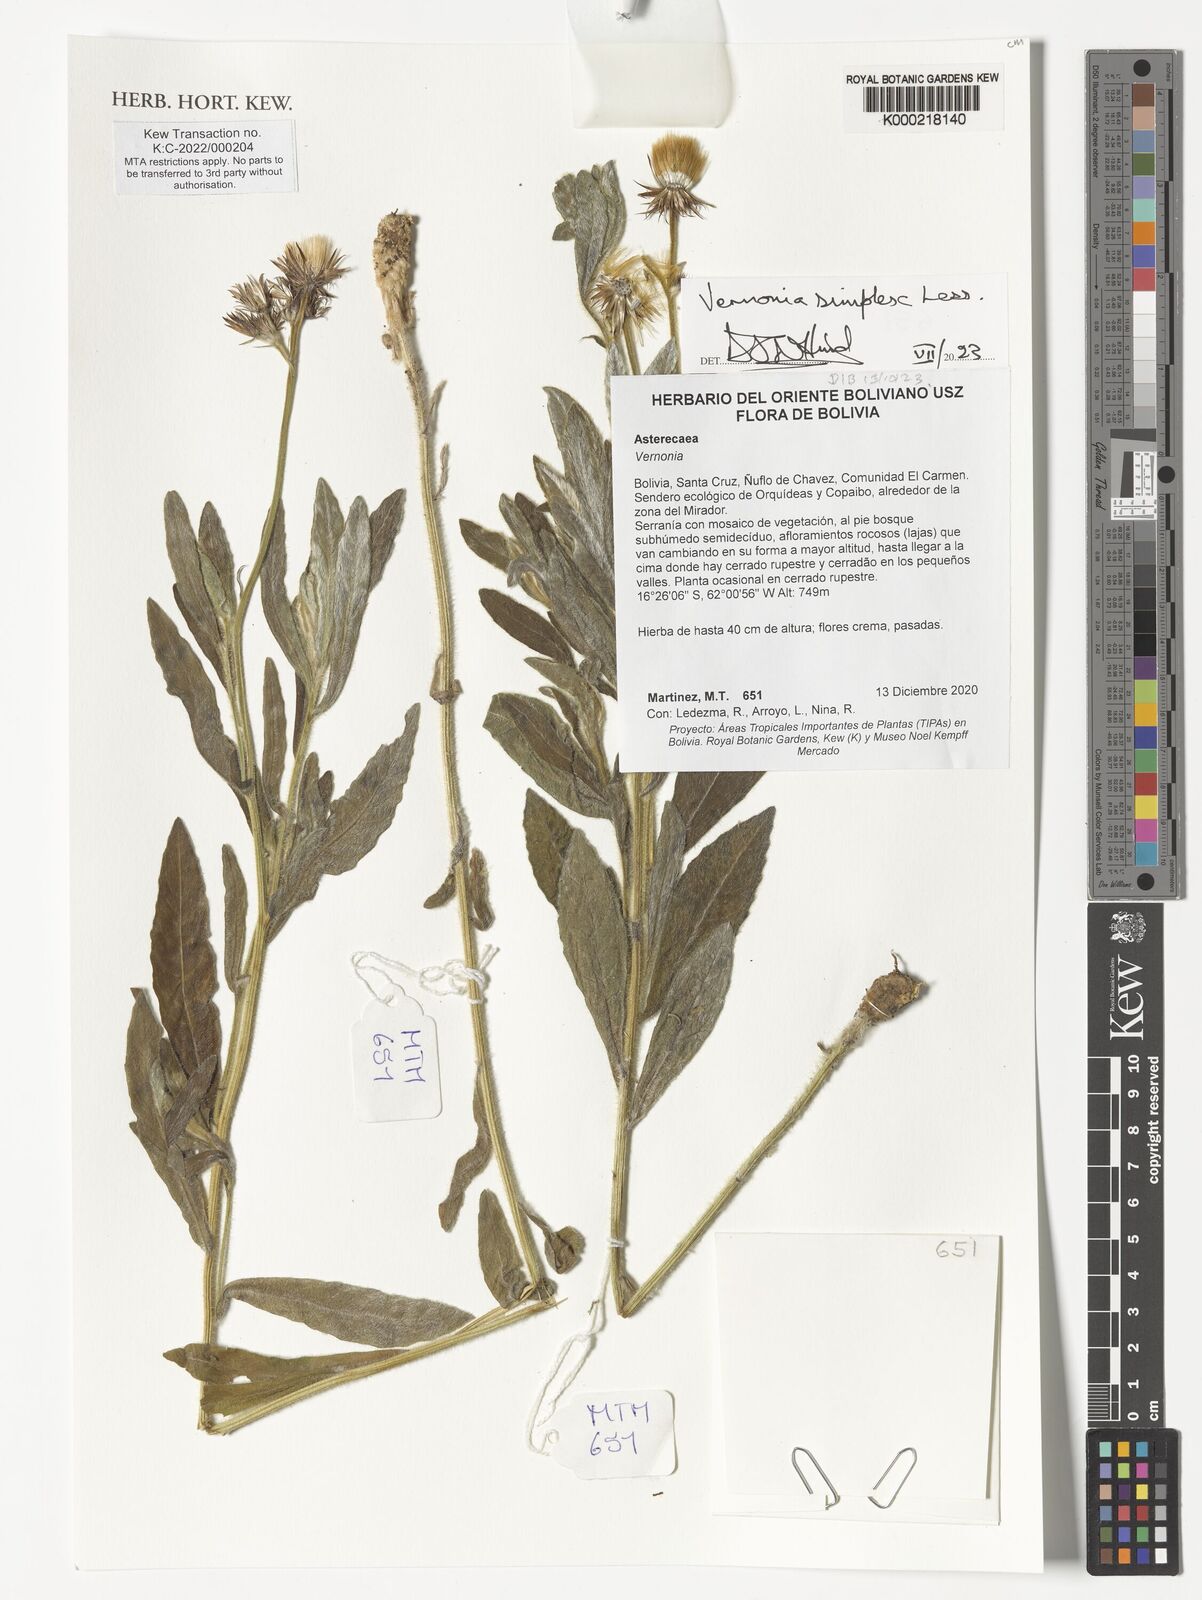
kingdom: Plantae
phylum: Tracheophyta
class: Magnoliopsida
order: Asterales
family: Asteraceae
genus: Chrysolaena
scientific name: Chrysolaena simplex
